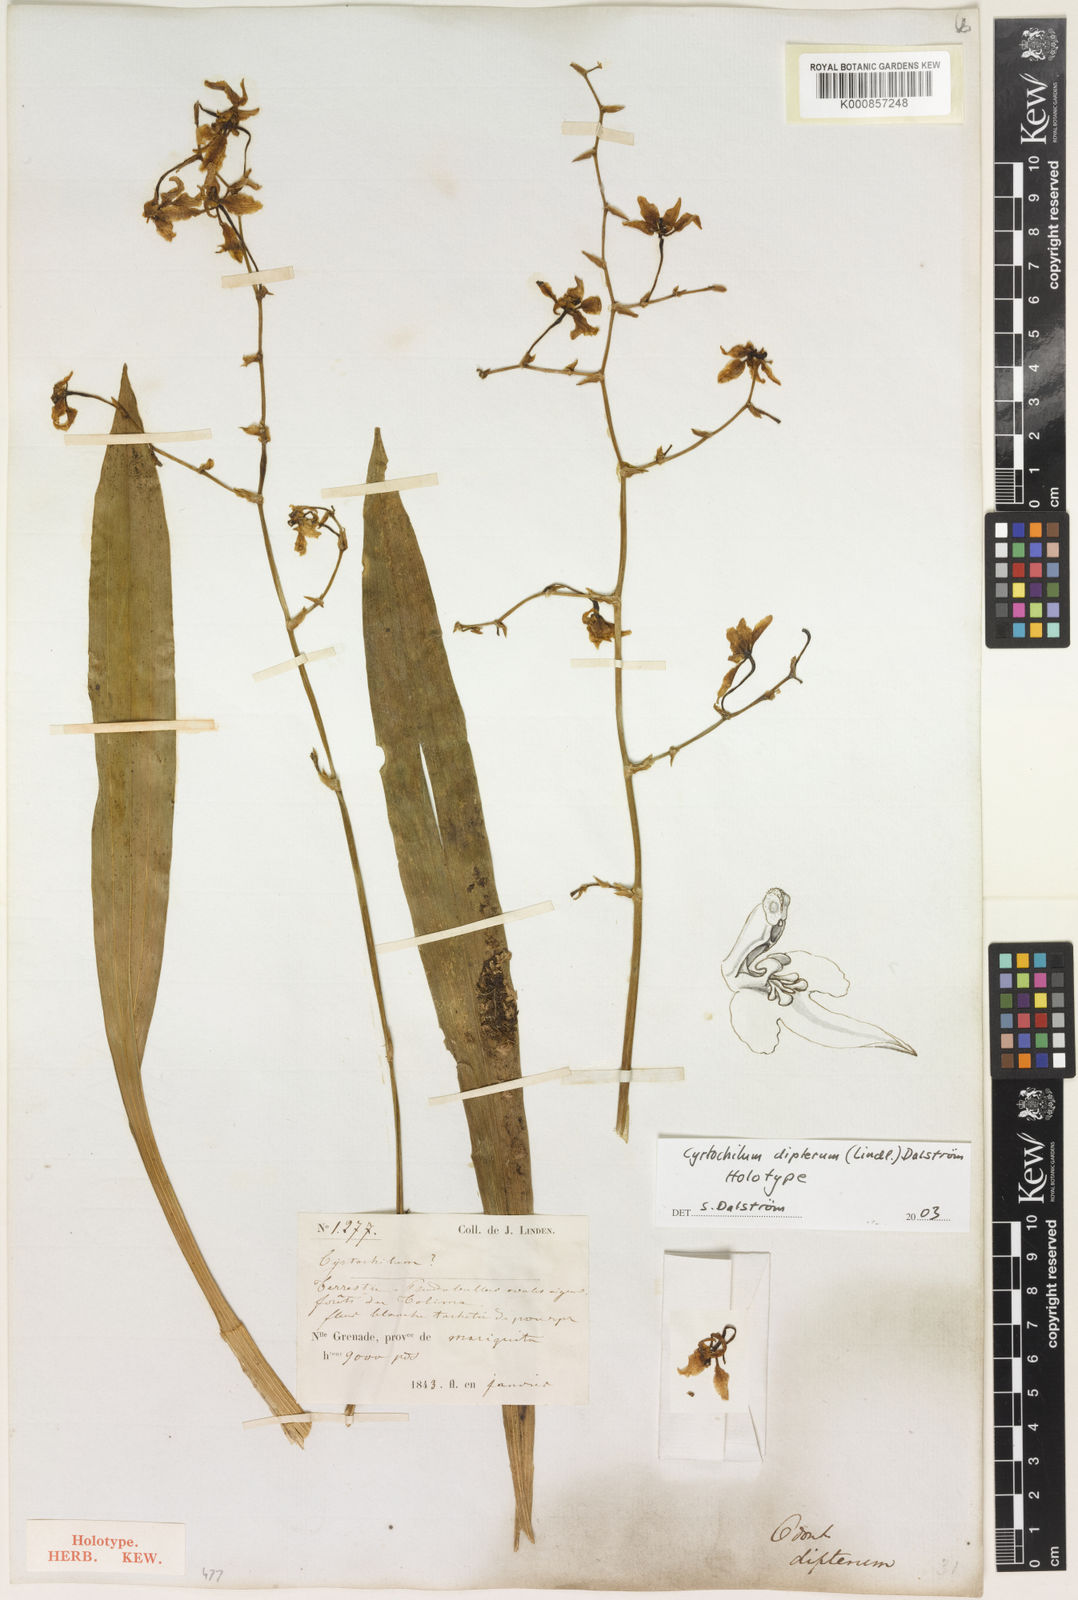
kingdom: Plantae
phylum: Tracheophyta
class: Liliopsida
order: Asparagales
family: Orchidaceae
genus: Cyrtochilum
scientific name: Cyrtochilum
